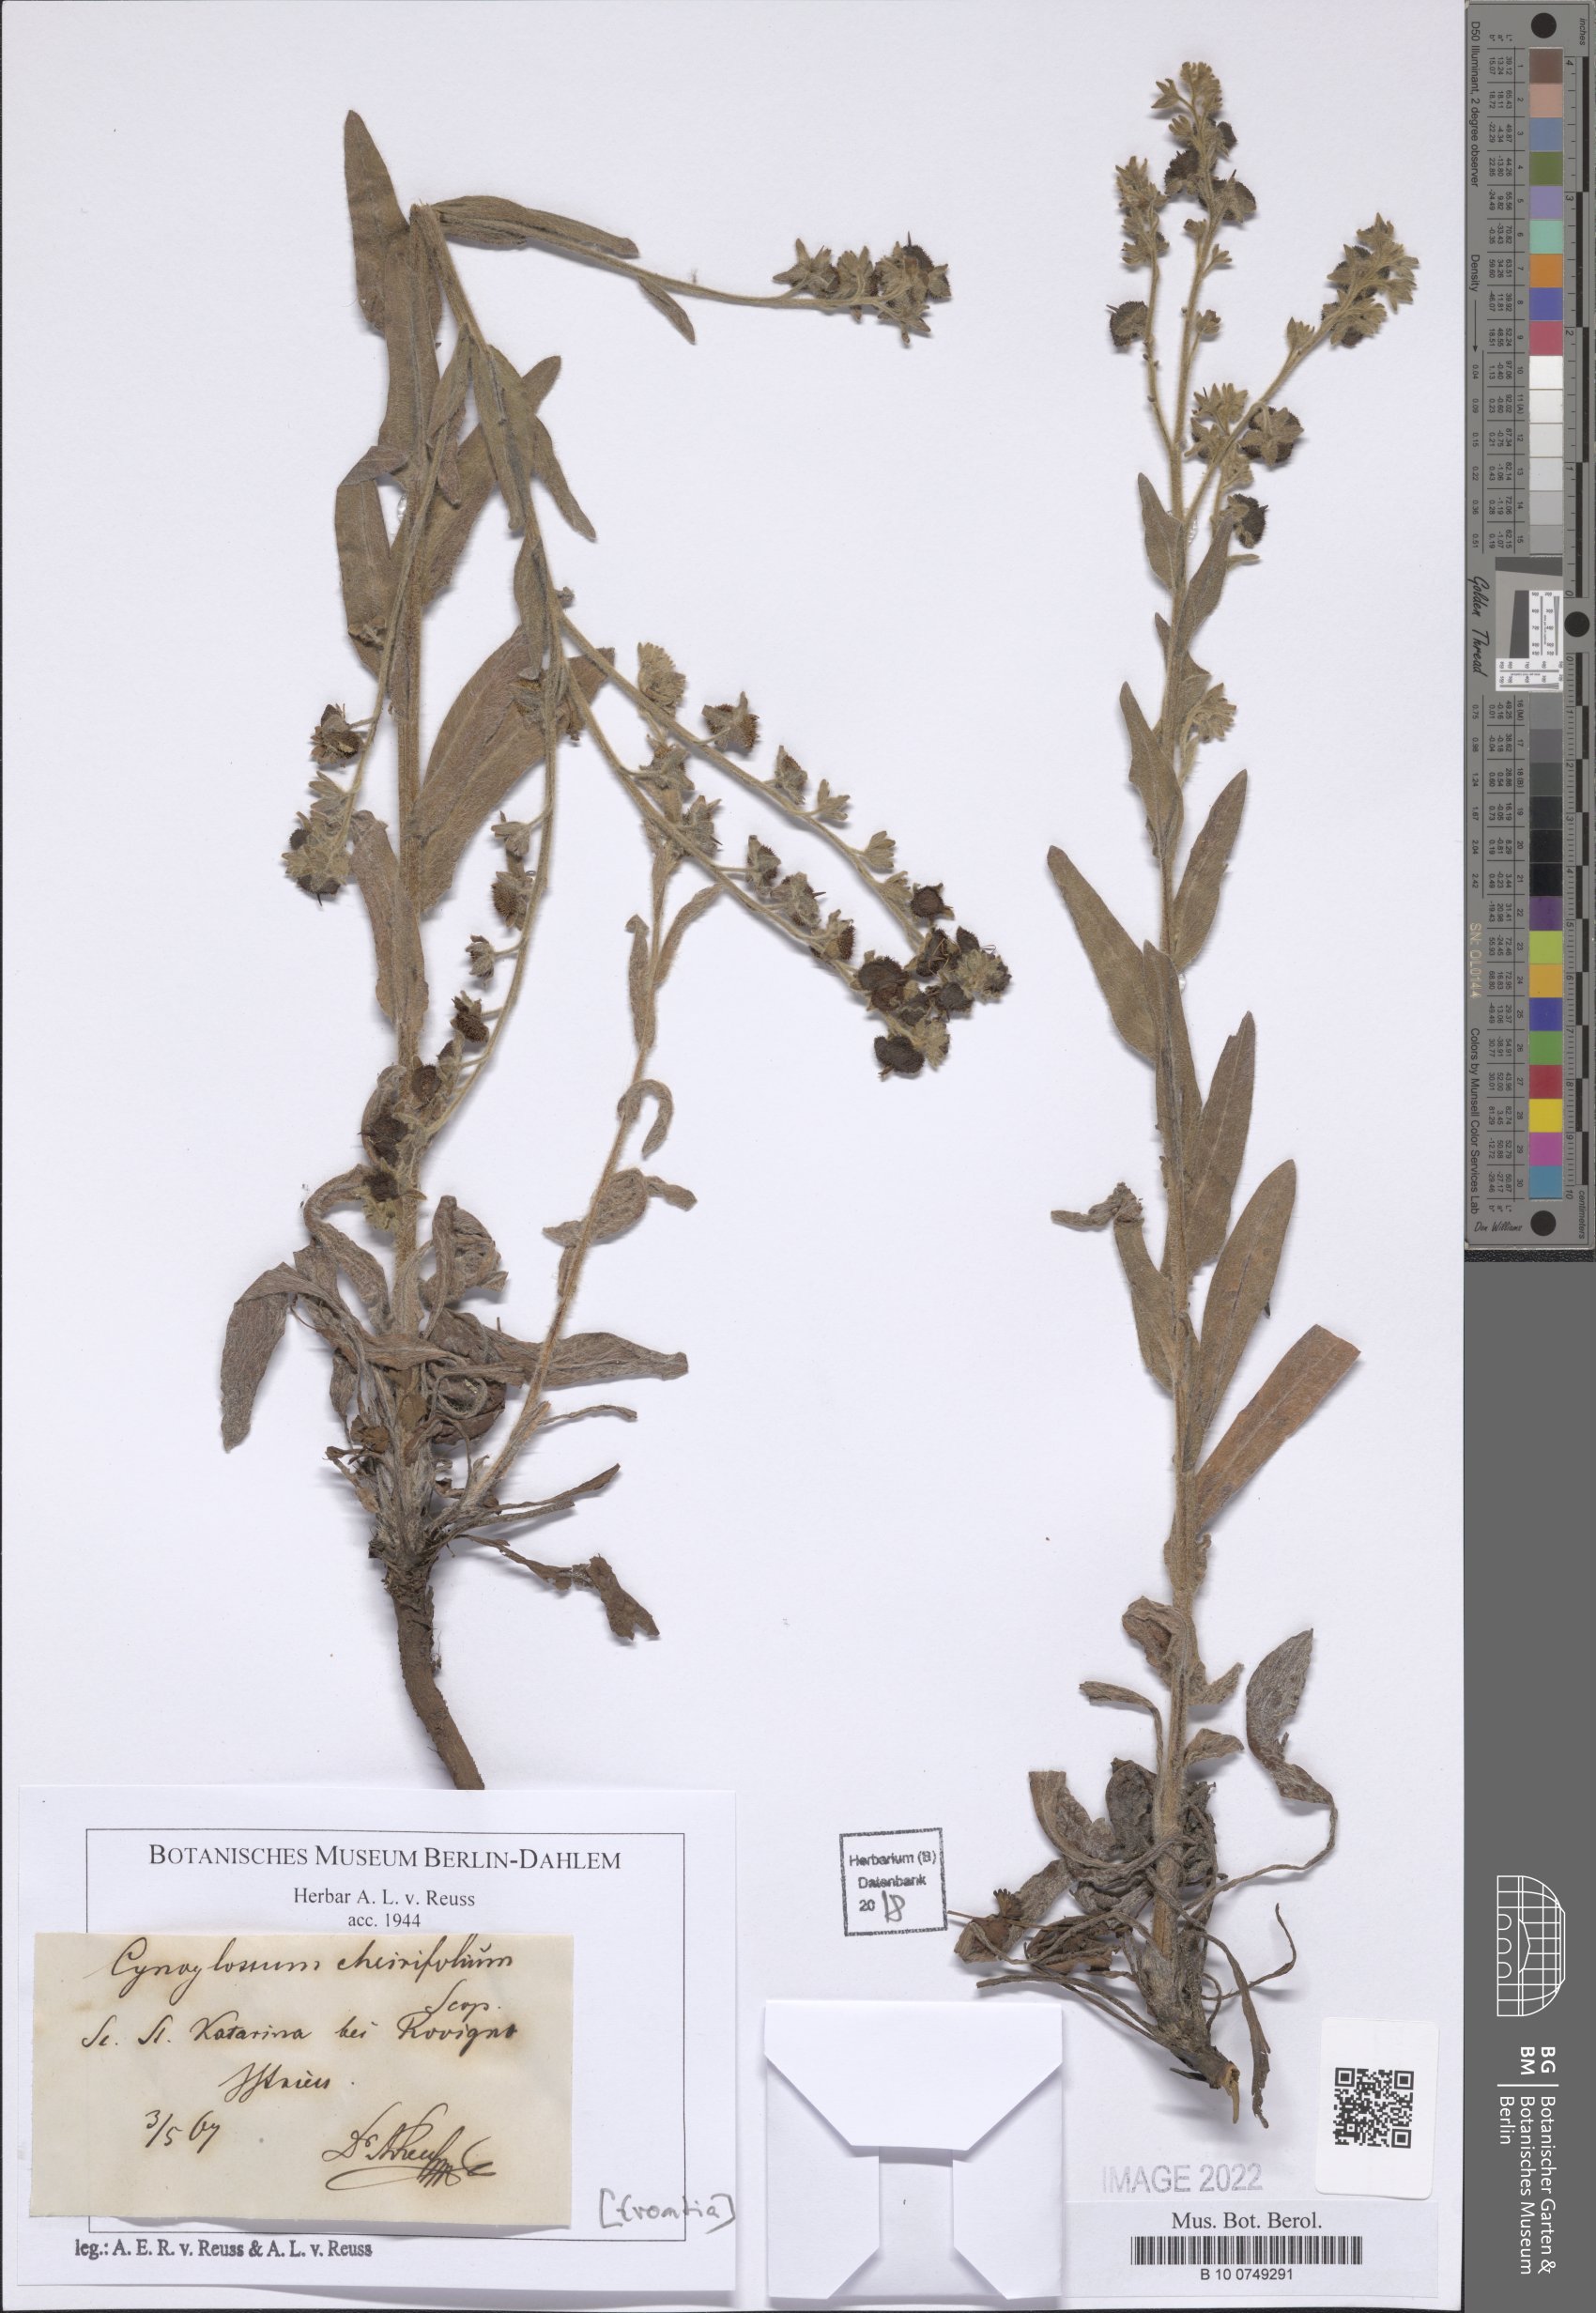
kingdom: Plantae
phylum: Tracheophyta
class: Magnoliopsida
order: Boraginales
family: Boraginaceae
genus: Pardoglossum
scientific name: Pardoglossum cheirifolium
